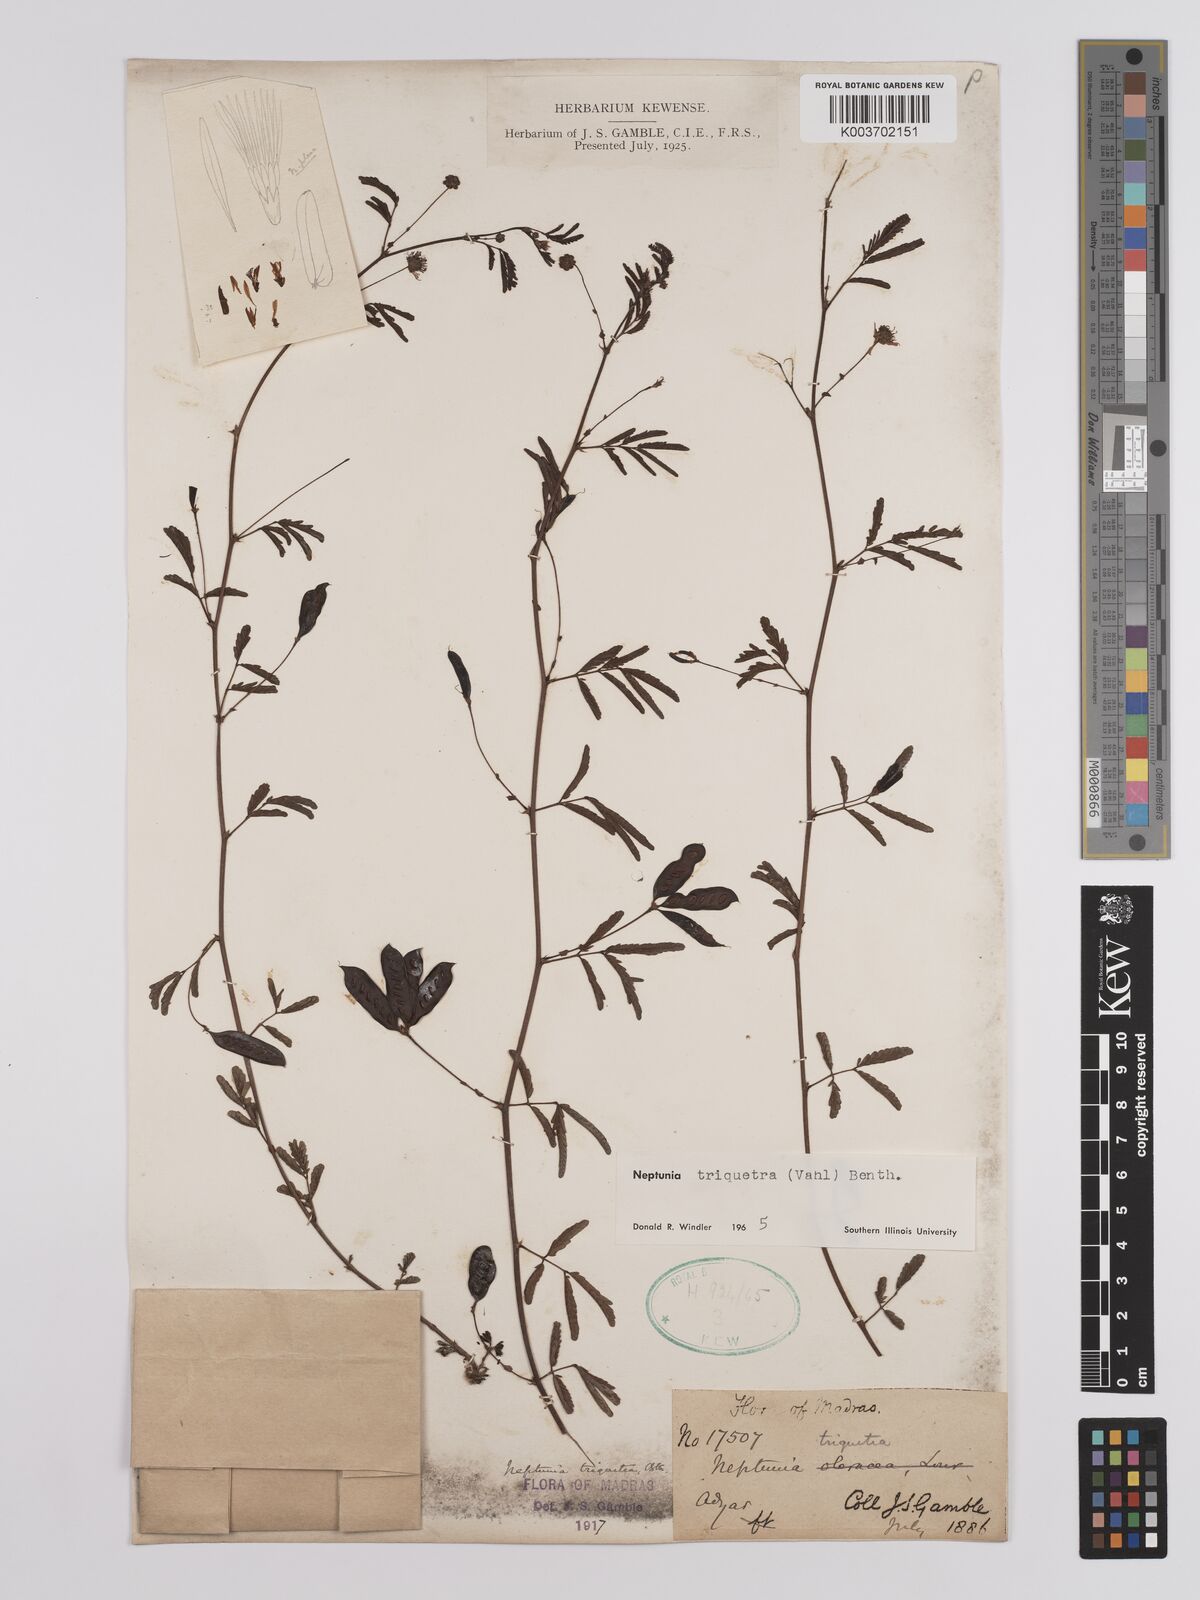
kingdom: Plantae
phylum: Tracheophyta
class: Magnoliopsida
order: Fabales
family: Fabaceae
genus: Neptunia
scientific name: Neptunia triquetra
